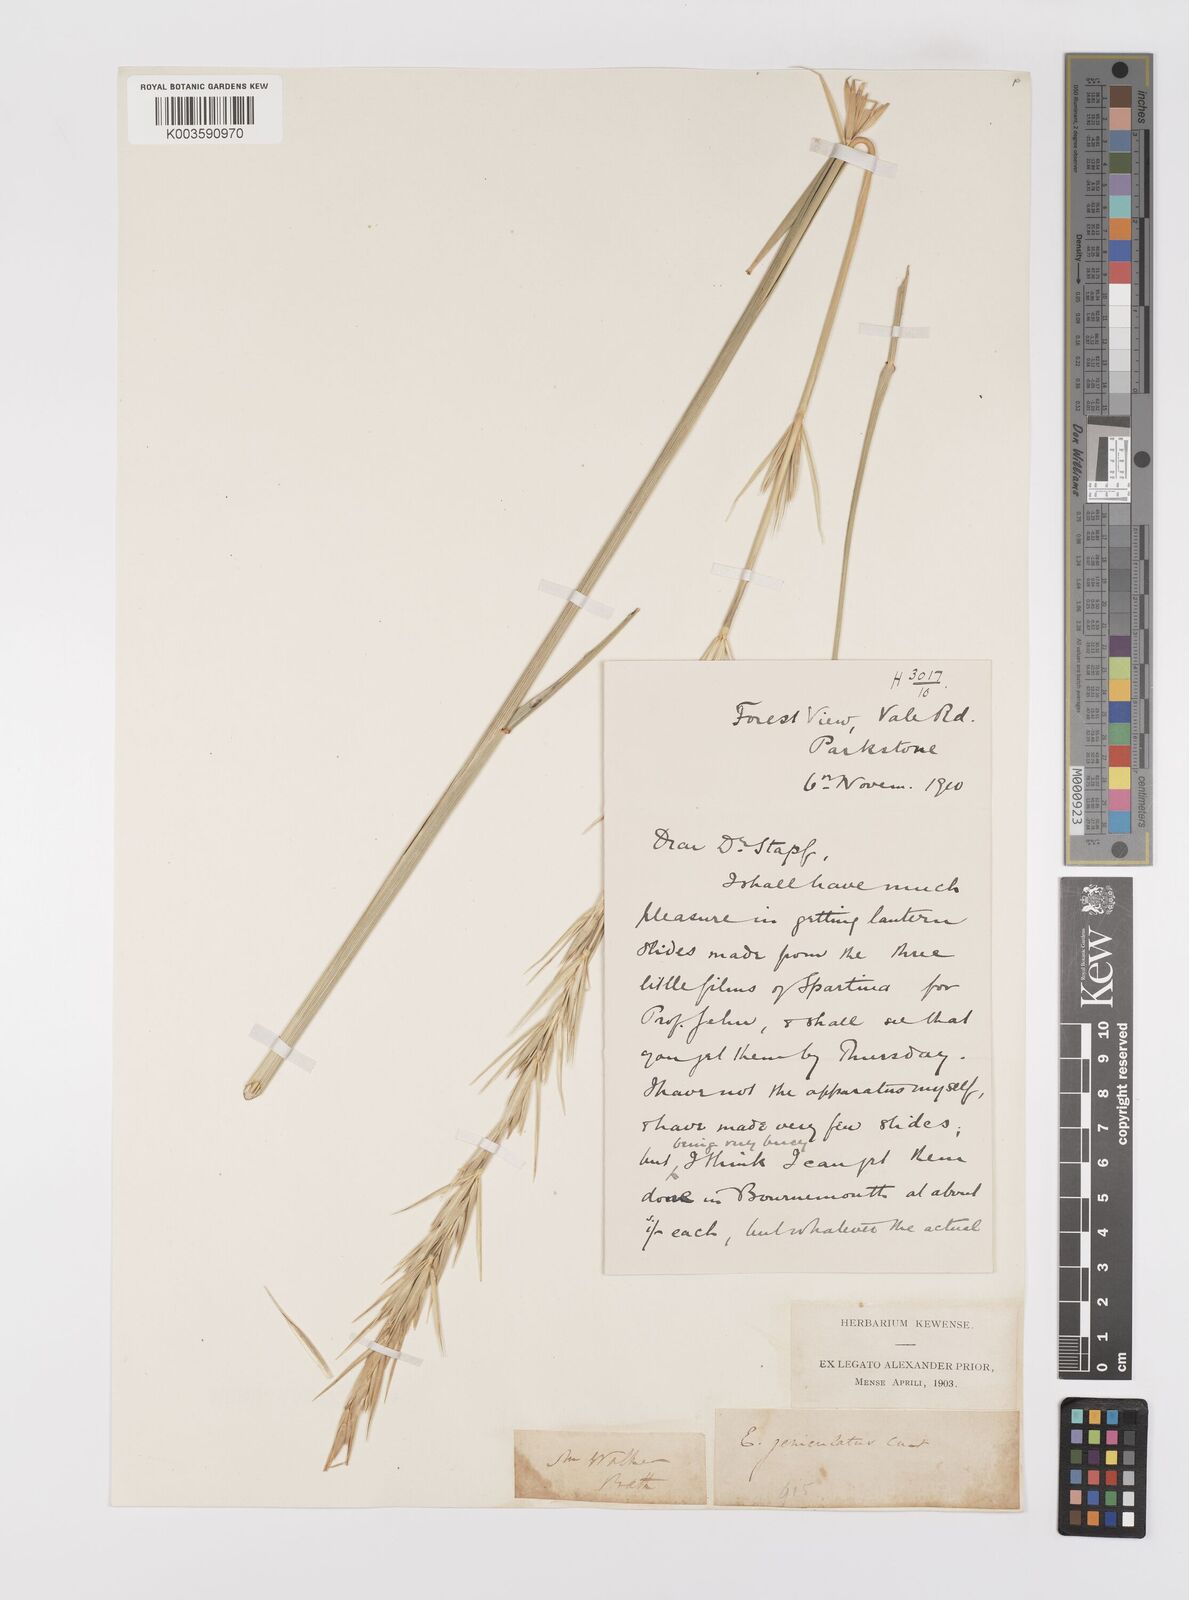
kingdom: Plantae
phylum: Tracheophyta
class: Liliopsida
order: Poales
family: Poaceae
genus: Leymus
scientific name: Leymus arenarius
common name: Lyme-grass
